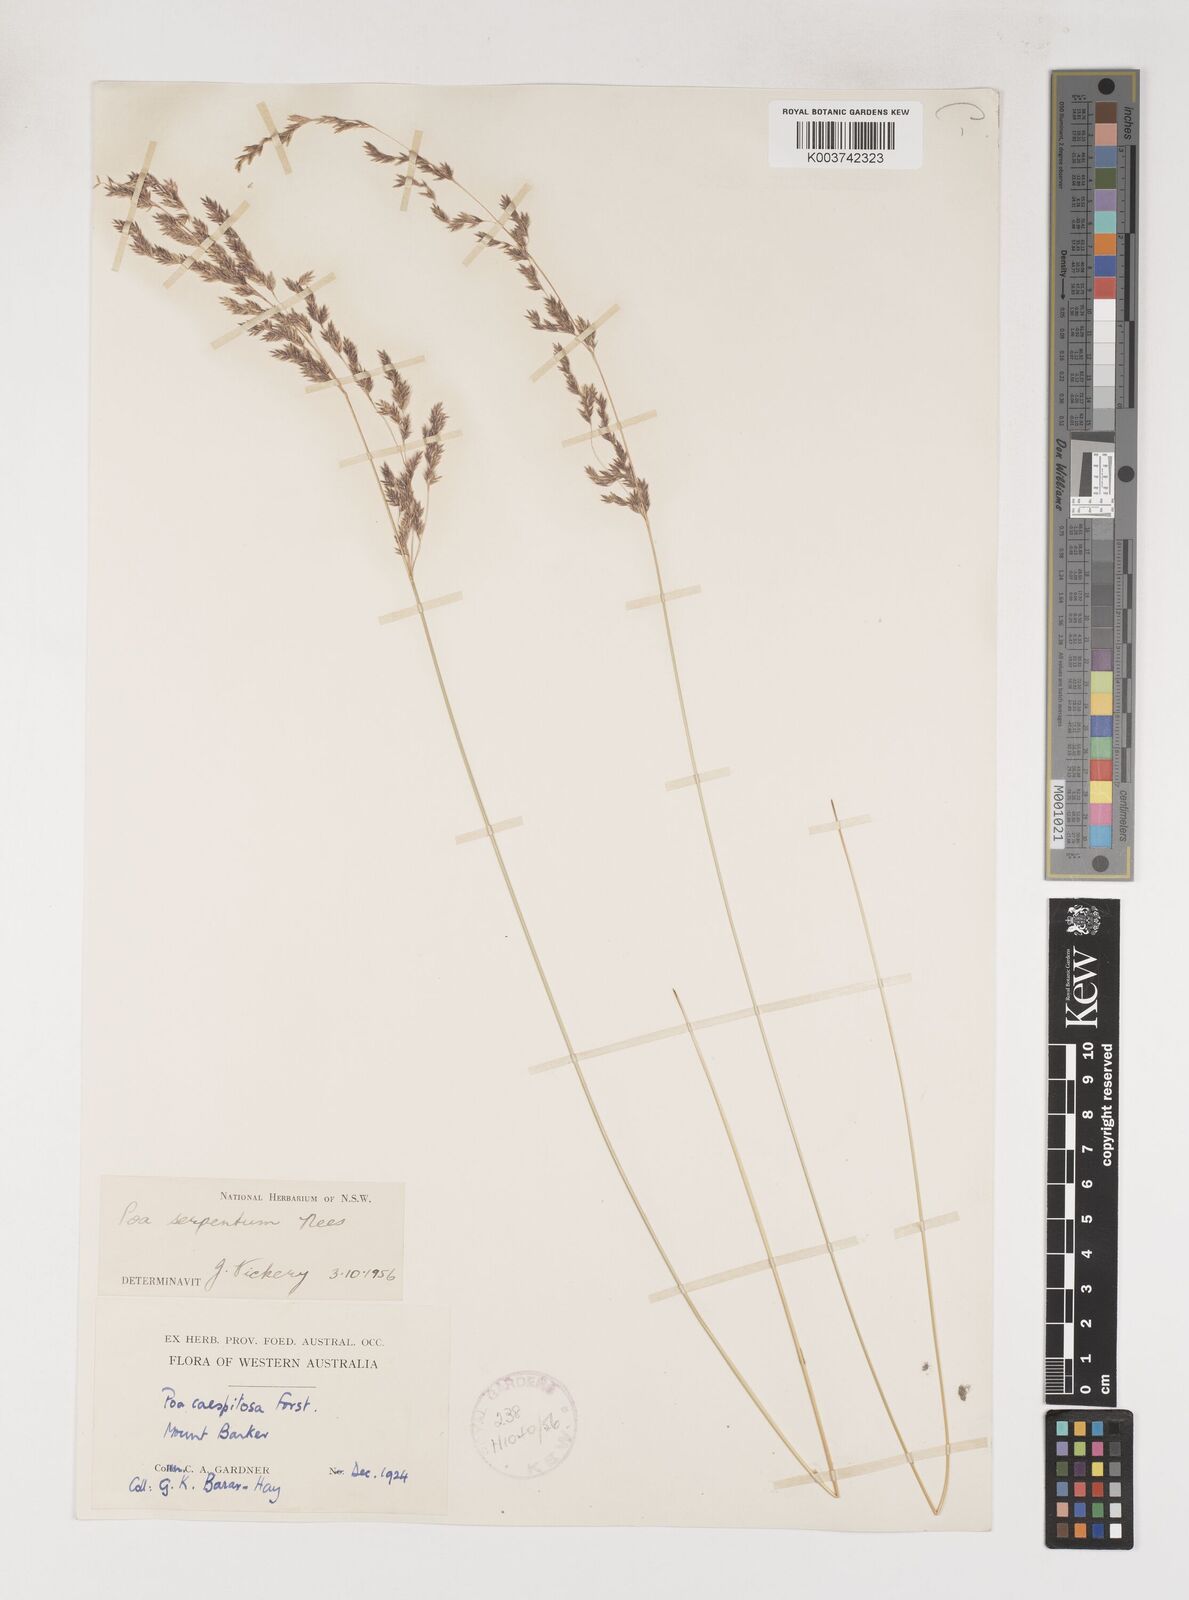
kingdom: Plantae
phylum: Tracheophyta
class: Liliopsida
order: Poales
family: Poaceae
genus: Poa
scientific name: Poa porphyroclados
